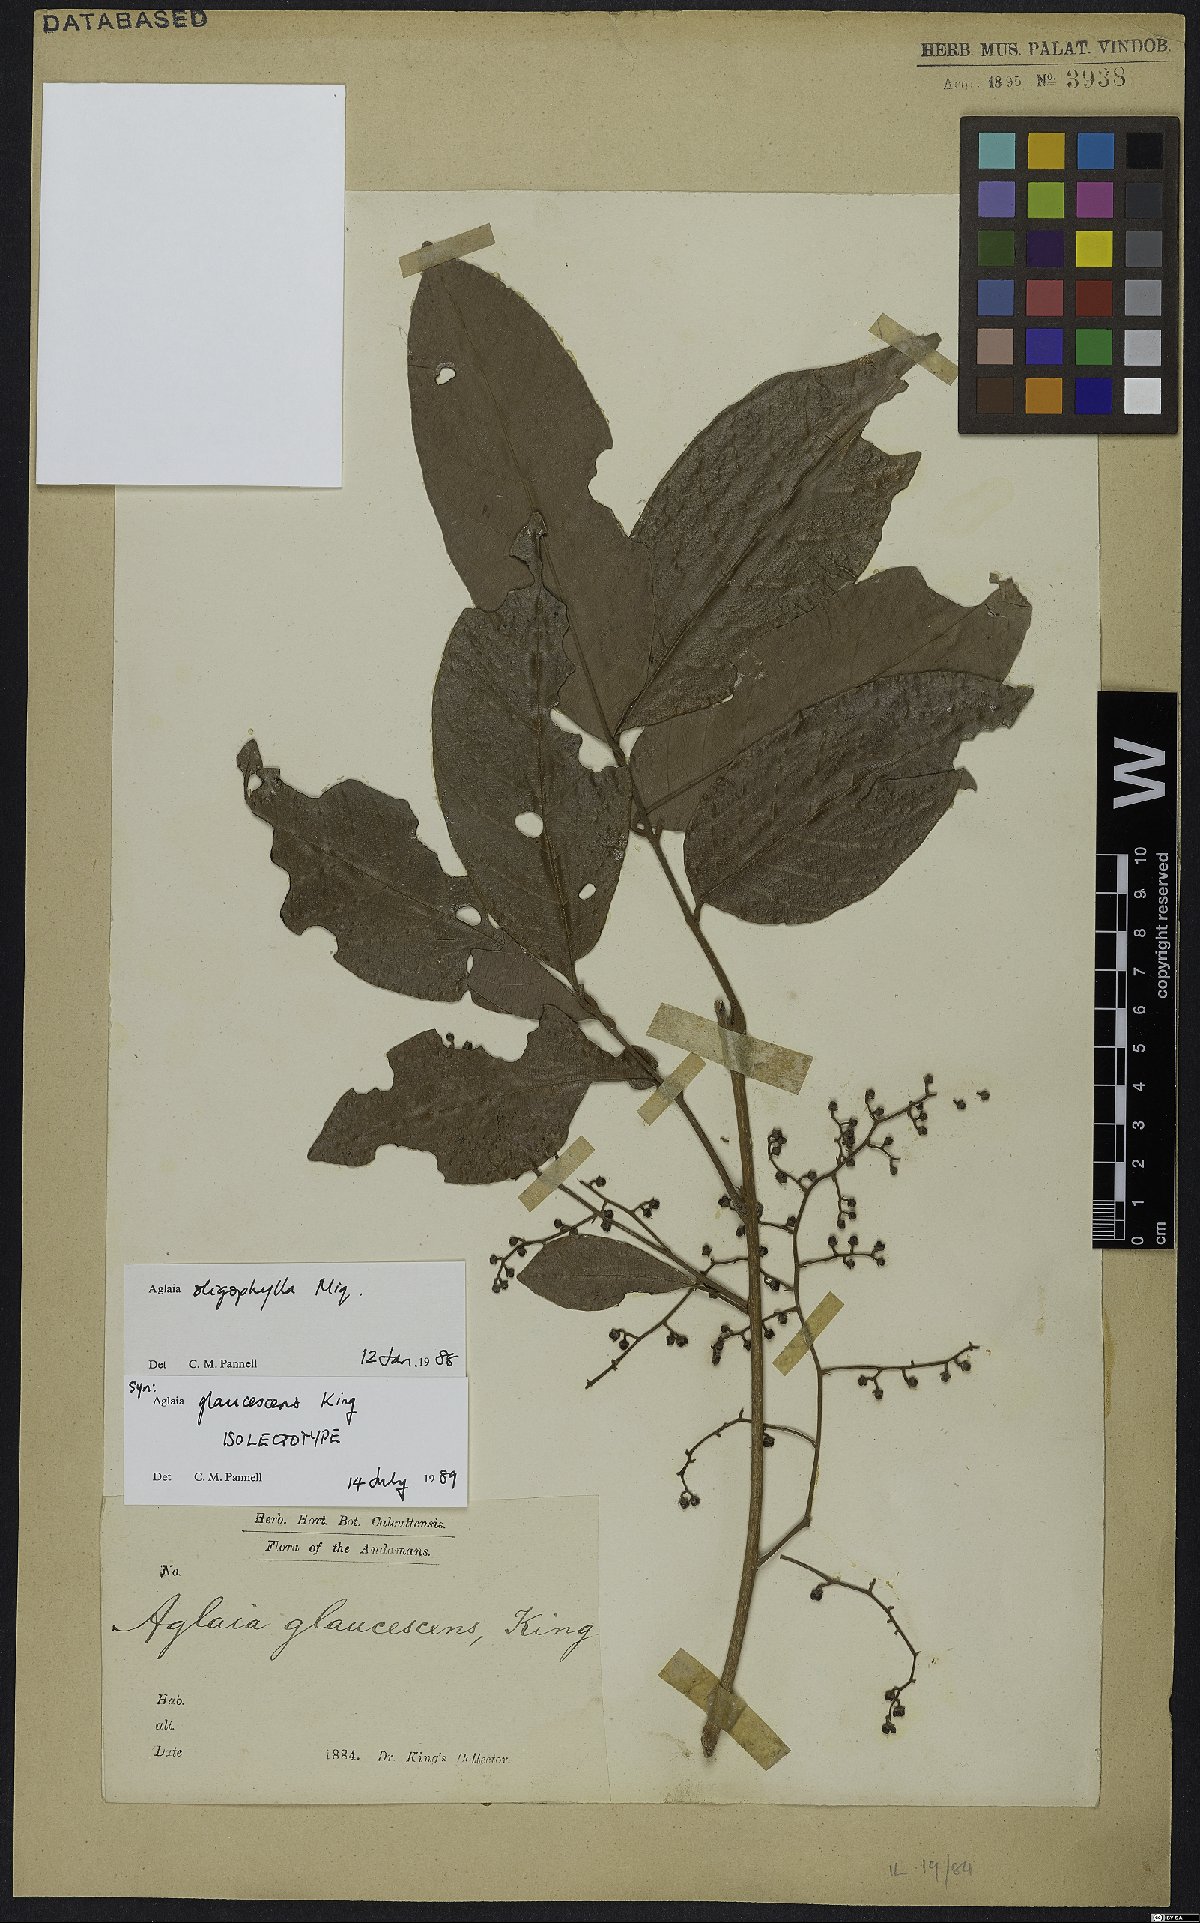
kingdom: Plantae
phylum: Tracheophyta
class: Magnoliopsida
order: Sapindales
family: Meliaceae
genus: Aglaia
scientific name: Aglaia oligophylla
